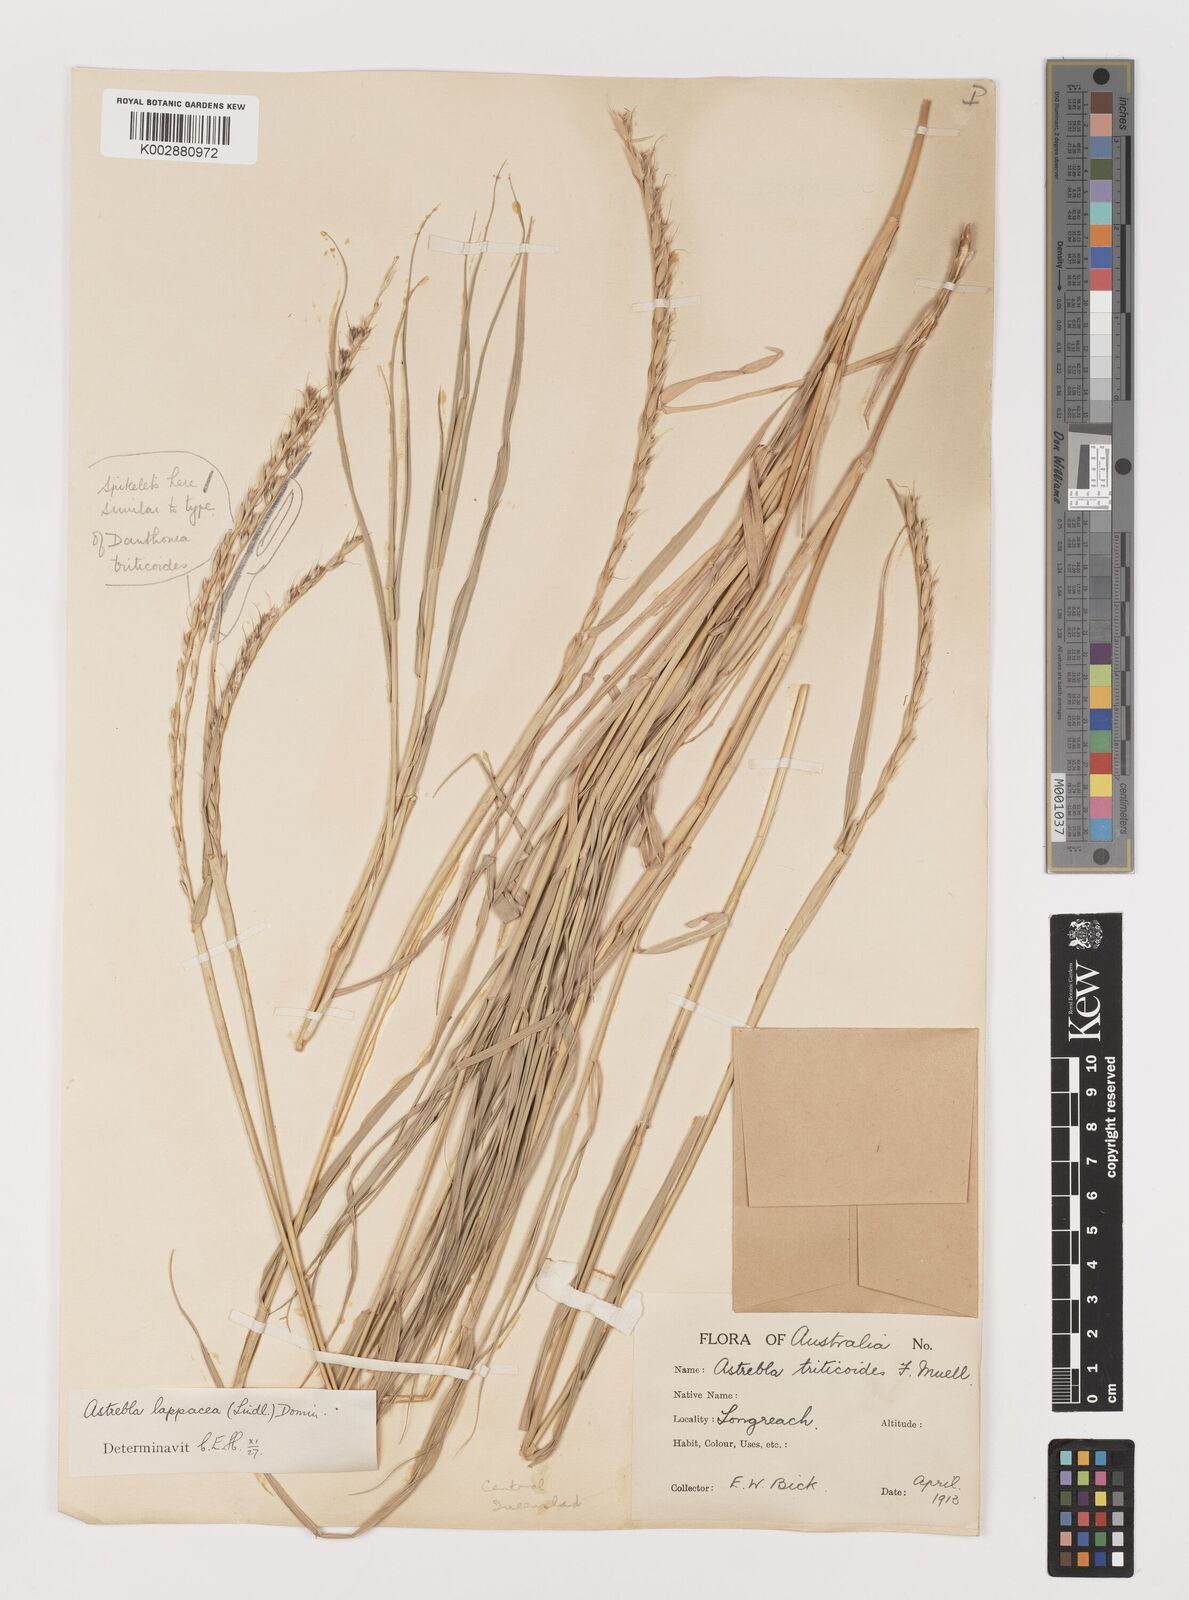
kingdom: Plantae
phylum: Tracheophyta
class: Liliopsida
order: Poales
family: Poaceae
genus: Astrebla
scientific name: Astrebla lappacea
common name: Curly mitchell grass
